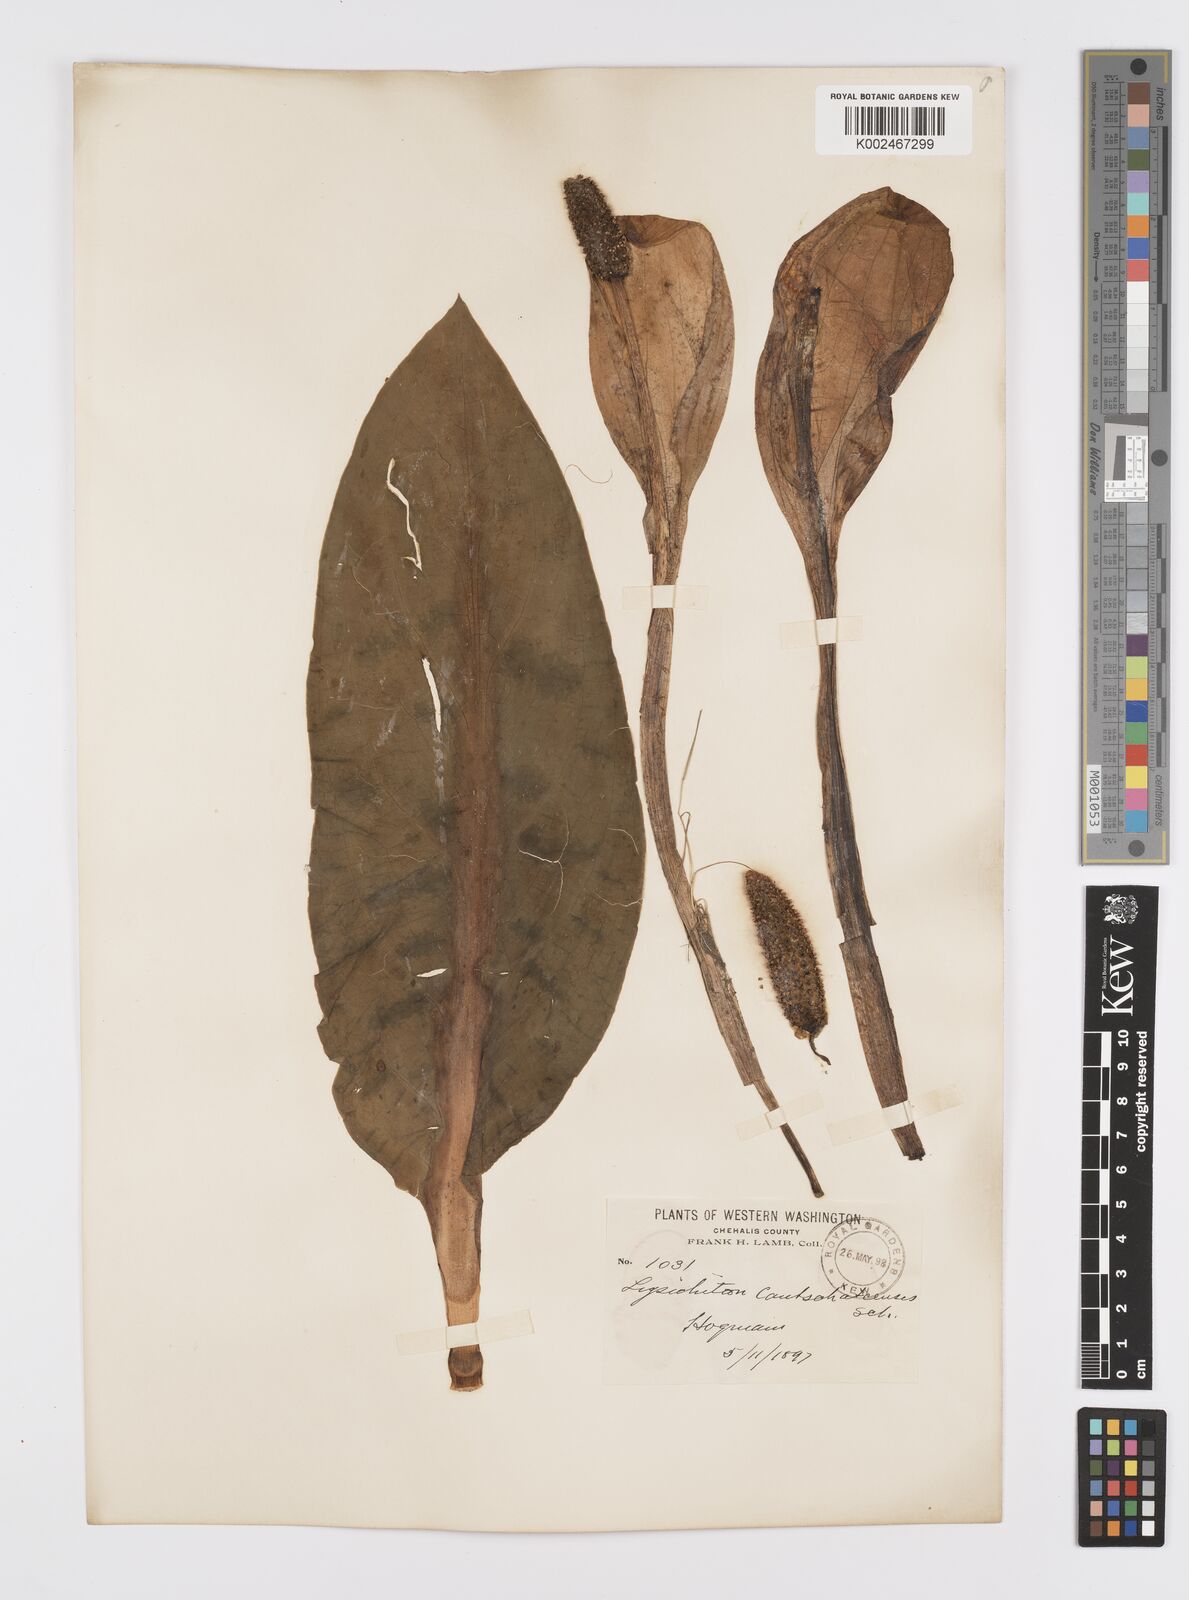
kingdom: Plantae
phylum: Tracheophyta
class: Liliopsida
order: Alismatales
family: Araceae
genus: Lysichiton
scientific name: Lysichiton americanus
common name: American skunk cabbage
